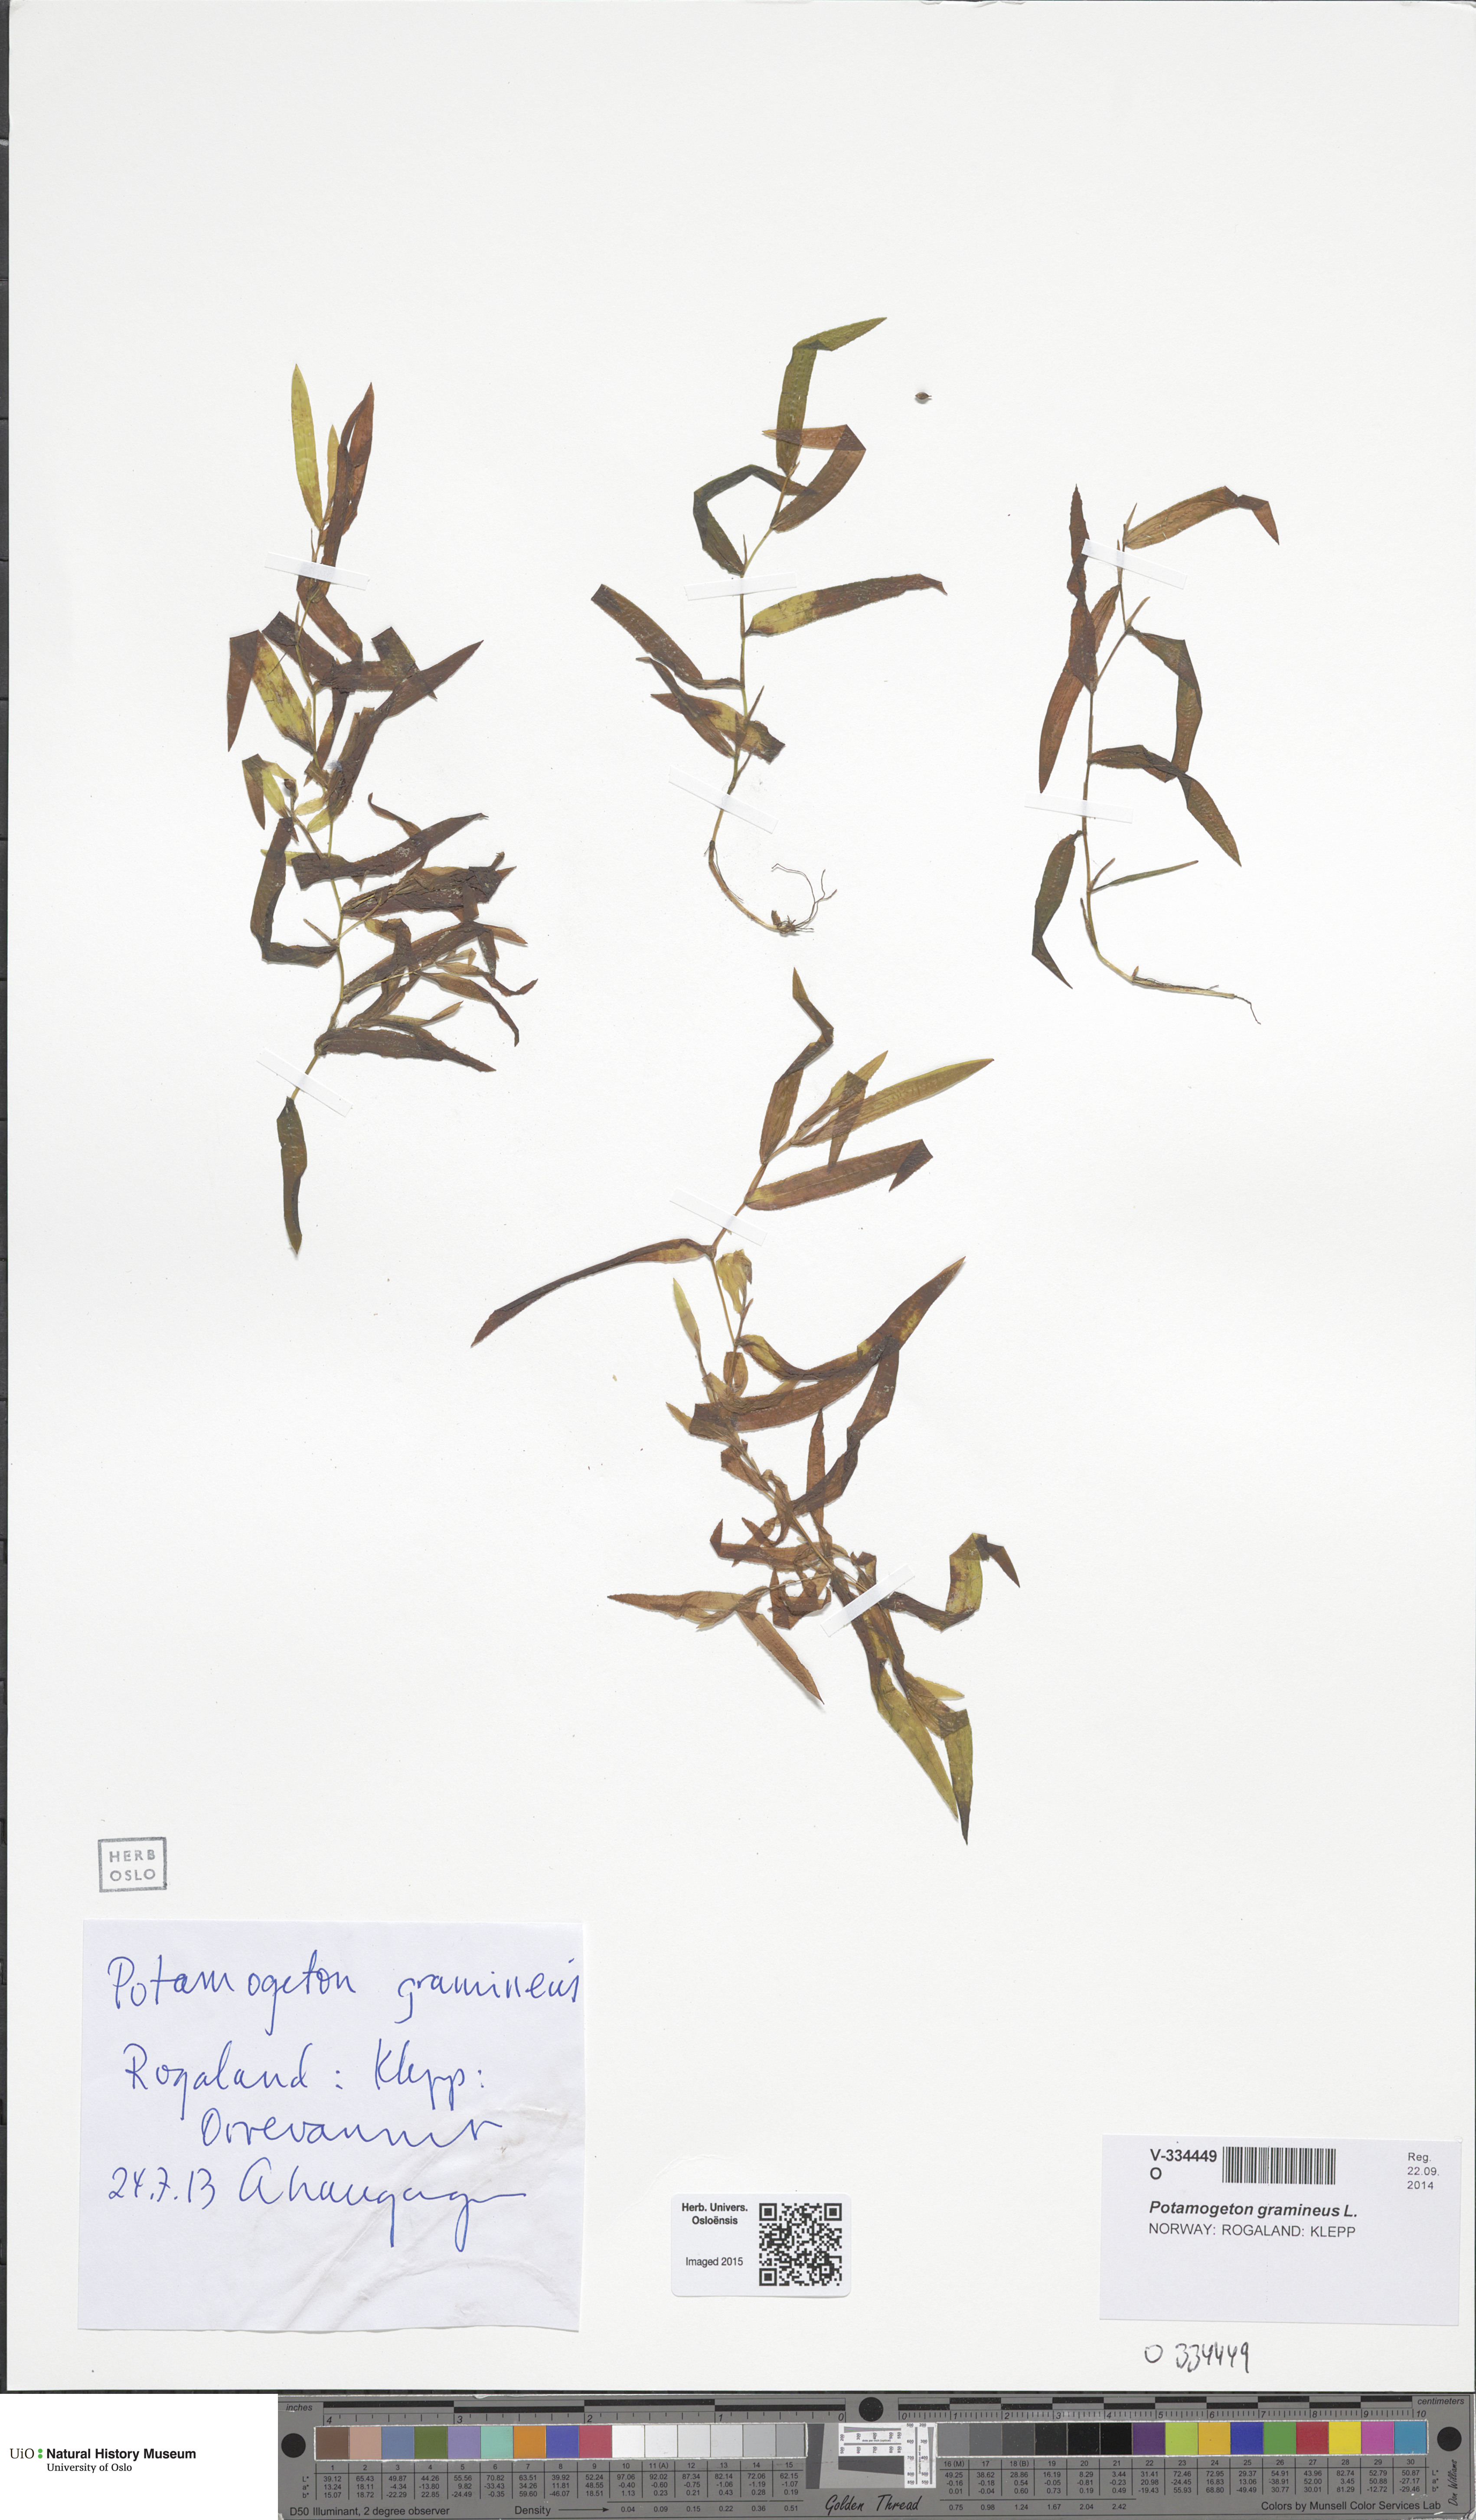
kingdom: Plantae
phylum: Tracheophyta
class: Liliopsida
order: Alismatales
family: Potamogetonaceae
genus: Potamogeton
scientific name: Potamogeton gramineus
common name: Various-leaved pondweed
